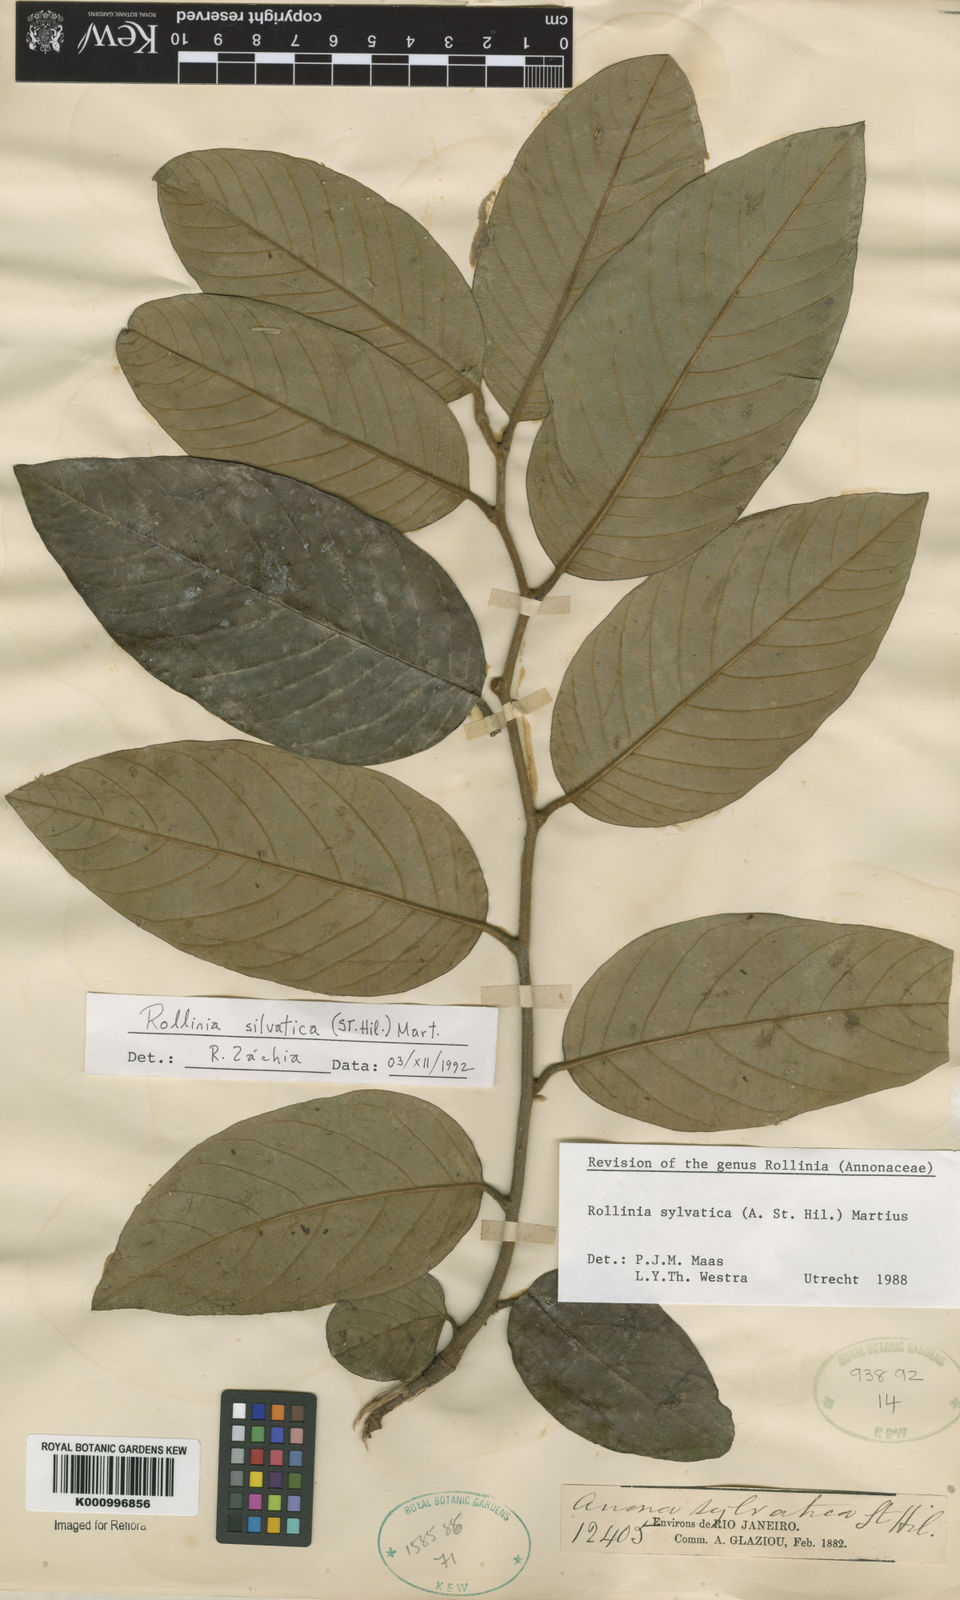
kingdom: Plantae
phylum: Tracheophyta
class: Magnoliopsida
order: Magnoliales
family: Annonaceae
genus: Annona
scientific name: Annona sylvatica
